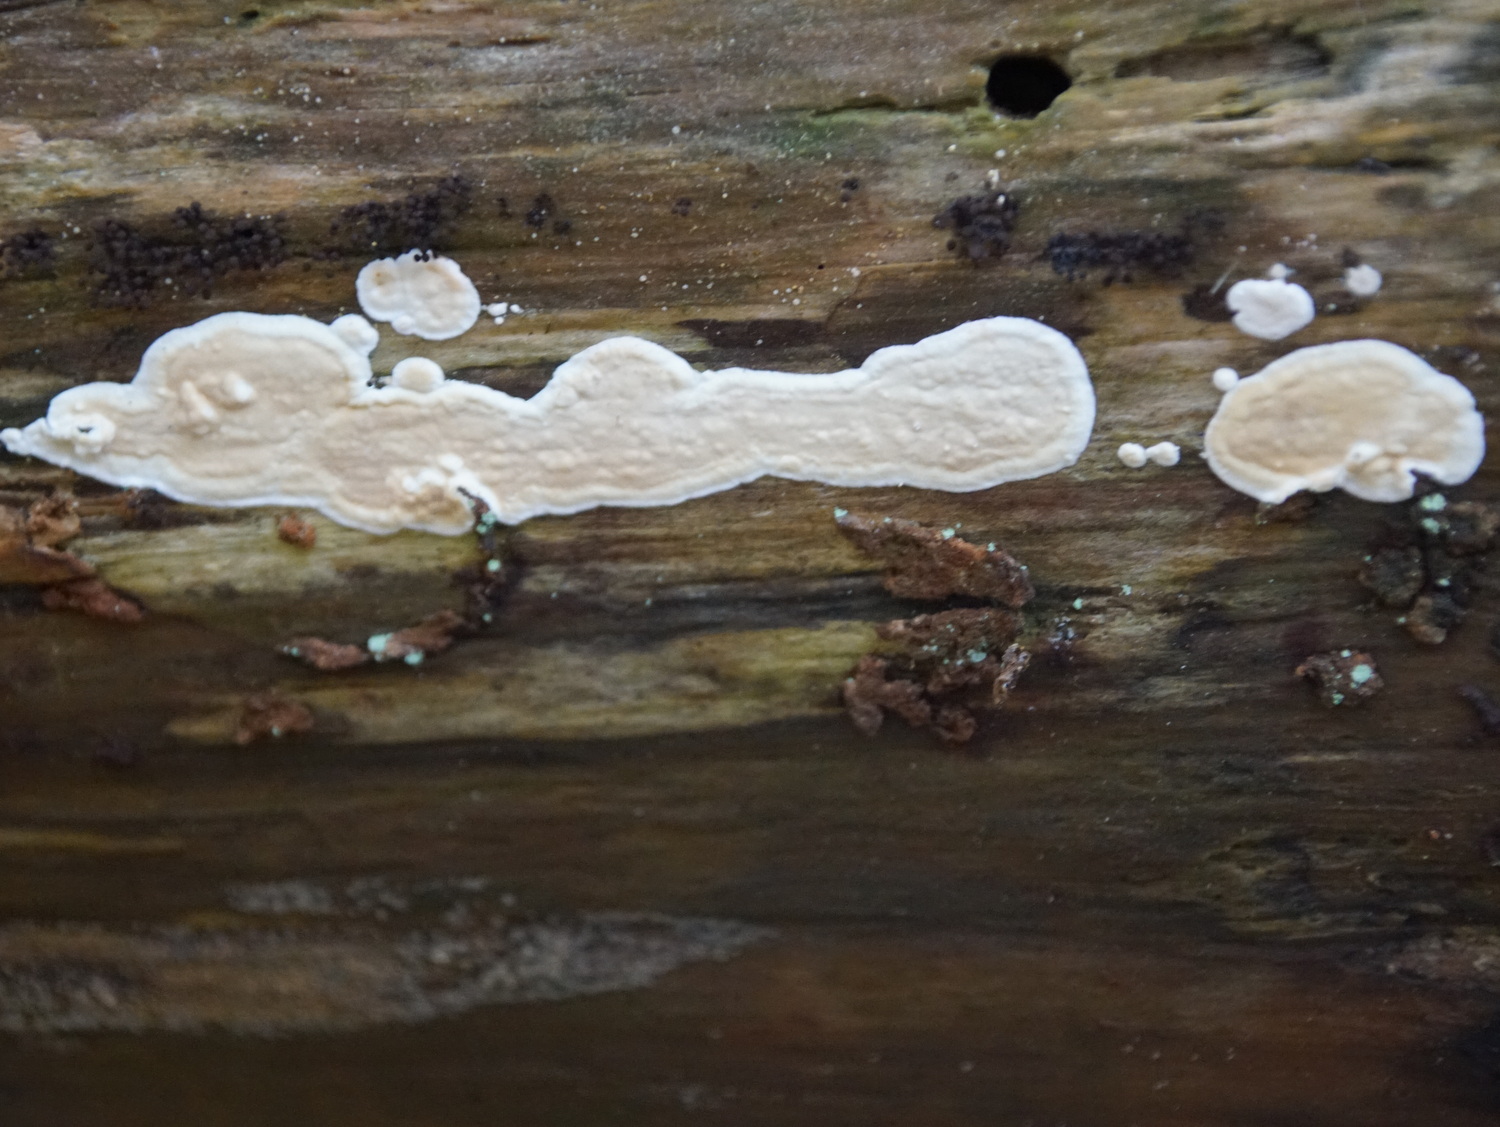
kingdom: Fungi
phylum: Basidiomycota
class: Agaricomycetes
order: Polyporales
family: Dacryobolaceae
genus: Dacryobolus
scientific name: Dacryobolus karstenii
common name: glat vulkanskorpe
